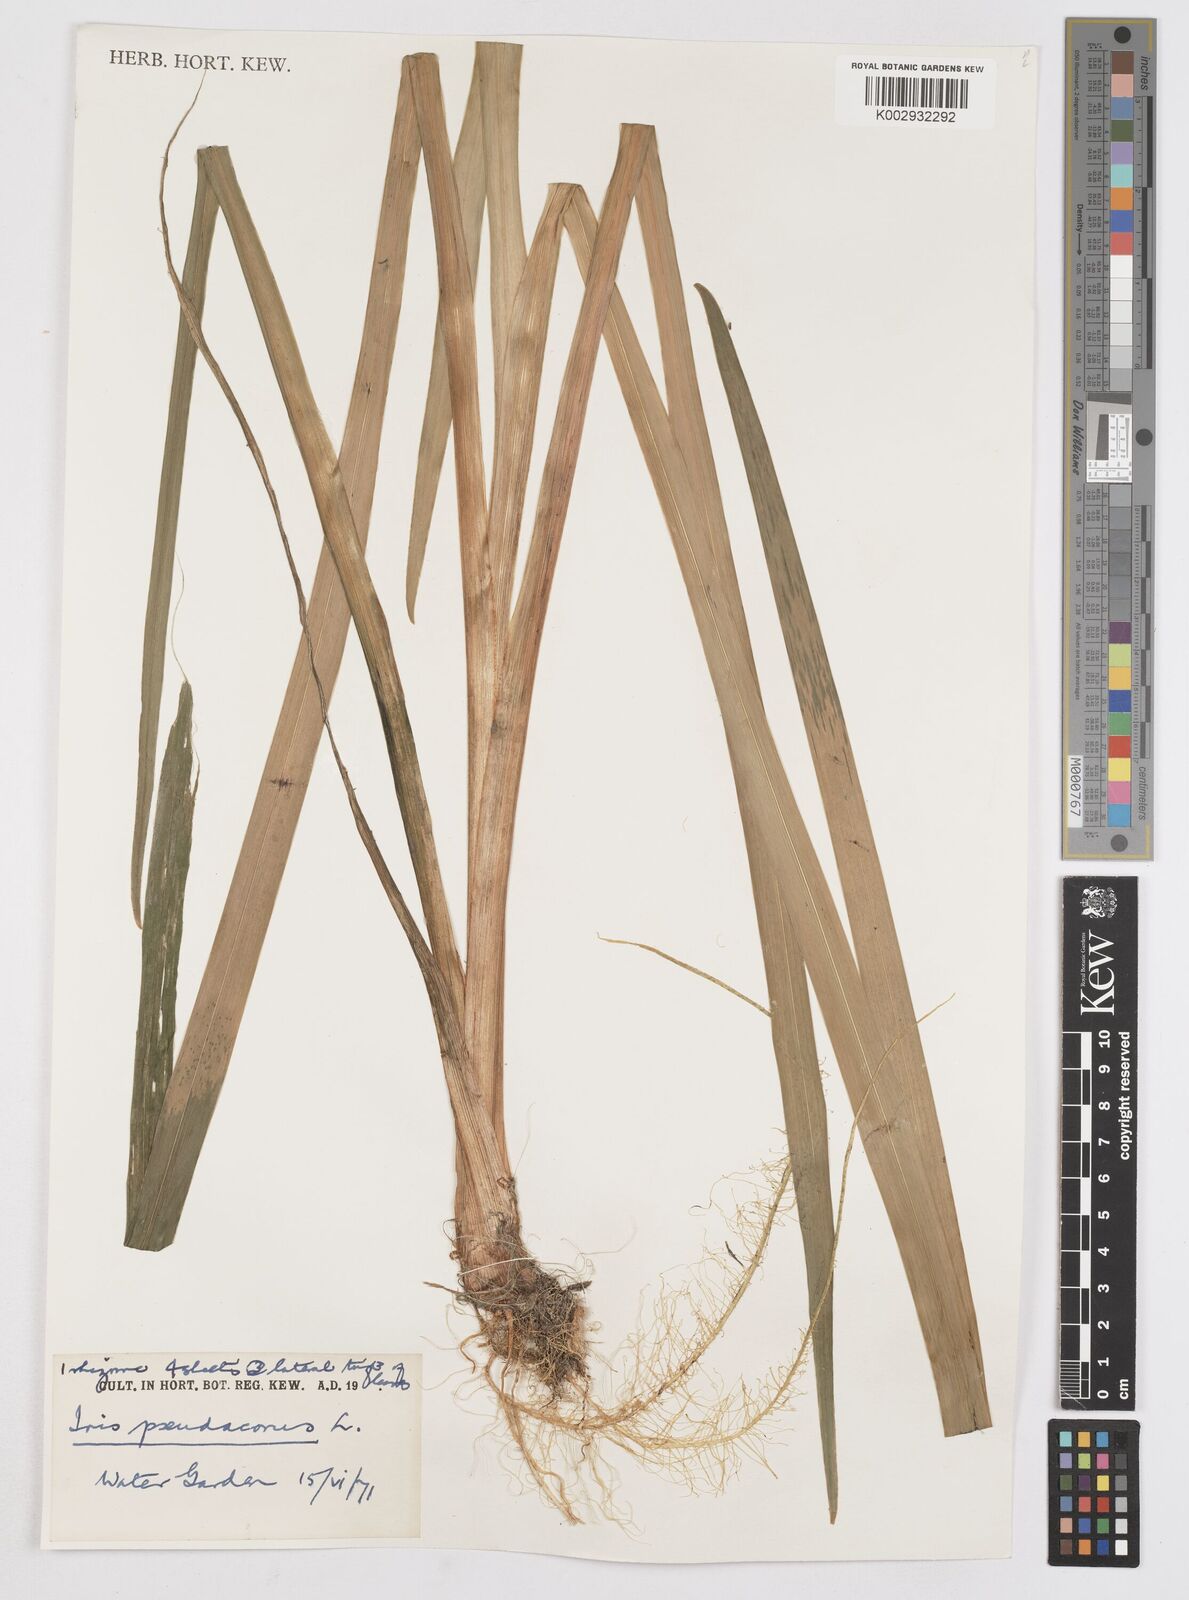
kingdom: Plantae
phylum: Tracheophyta
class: Liliopsida
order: Asparagales
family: Iridaceae
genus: Iris
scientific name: Iris pseudacorus
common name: Yellow flag
